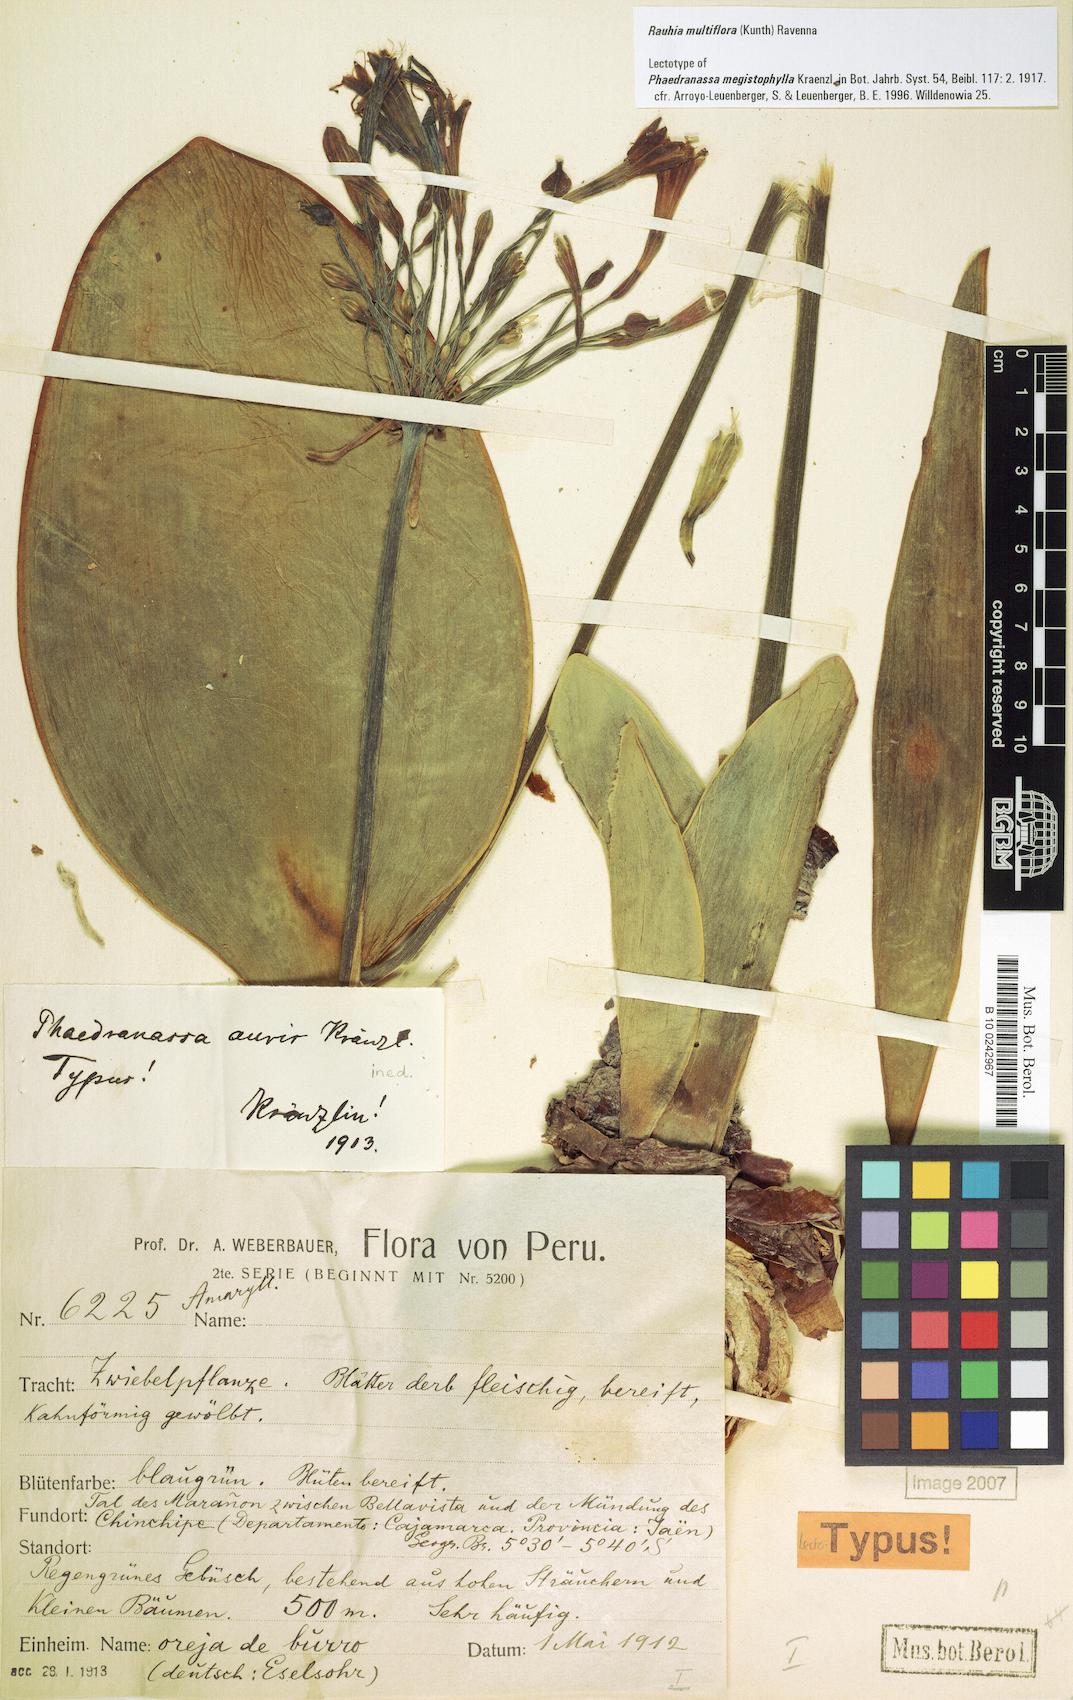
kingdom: Plantae
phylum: Tracheophyta
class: Liliopsida
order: Asparagales
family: Amaryllidaceae
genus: Rauhia
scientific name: Rauhia multiflora
